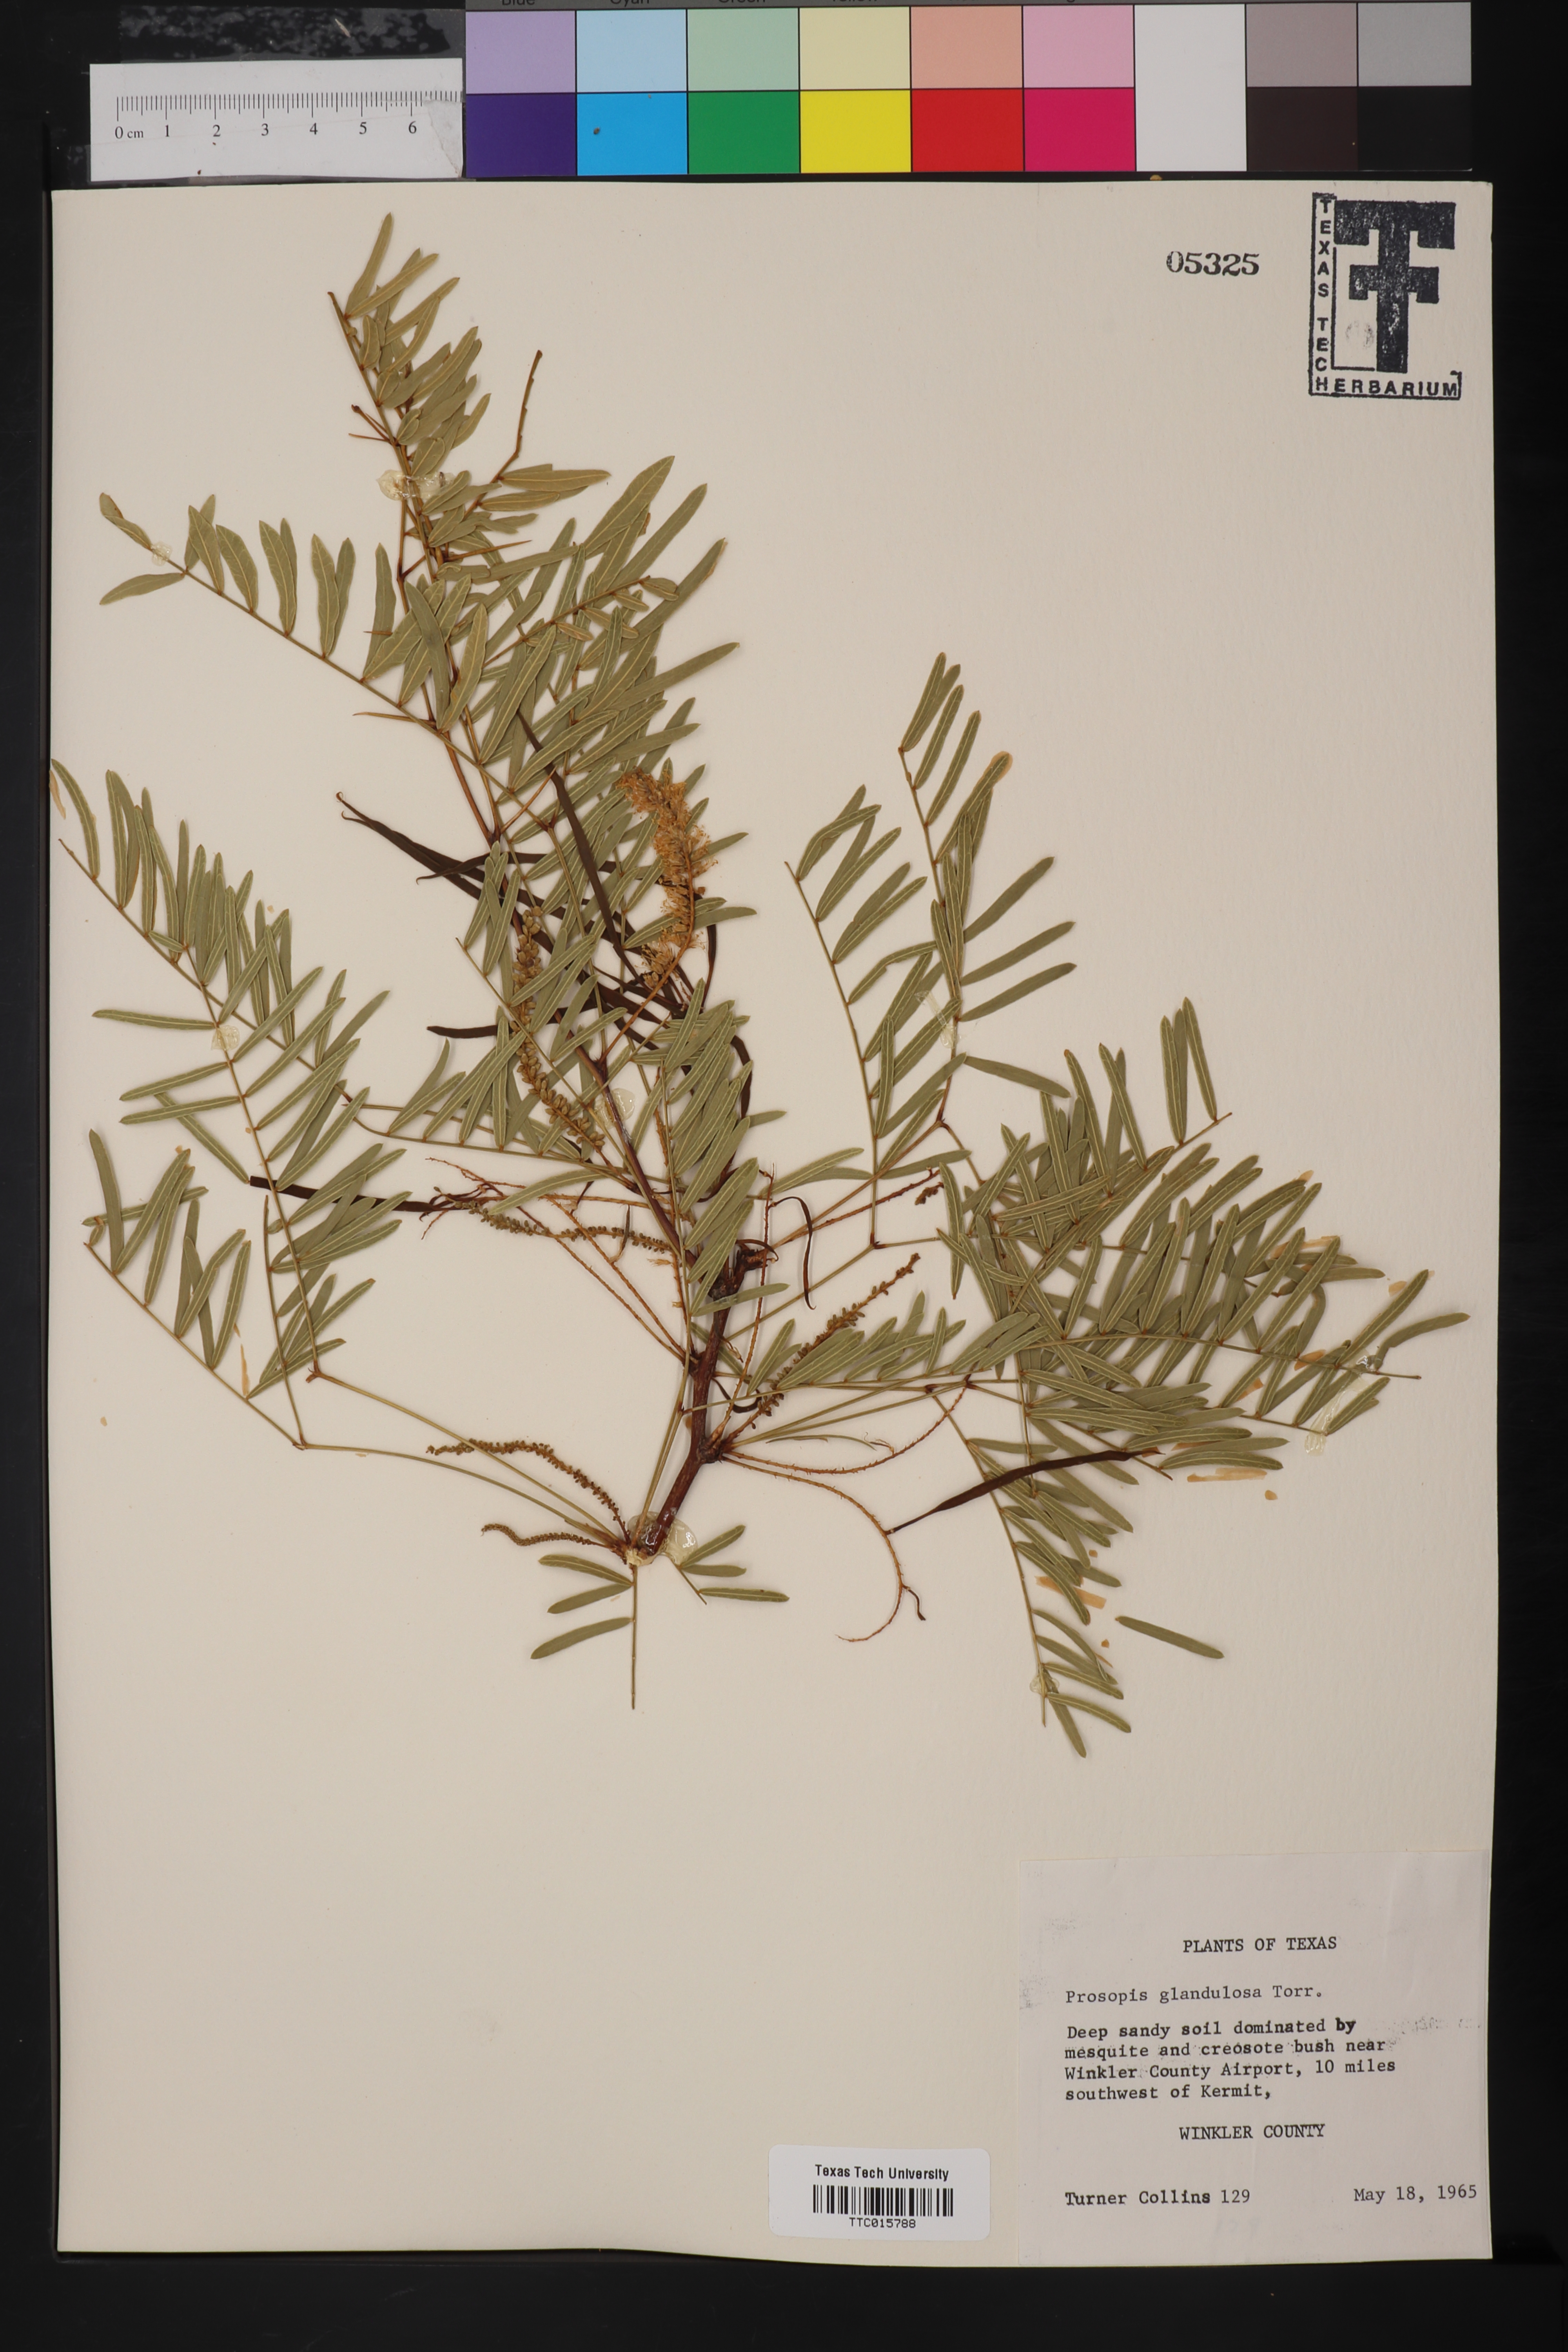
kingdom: Plantae
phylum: Tracheophyta
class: Magnoliopsida
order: Fabales
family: Fabaceae
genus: Prosopis
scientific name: Prosopis glandulosa
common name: Honey mesquite
